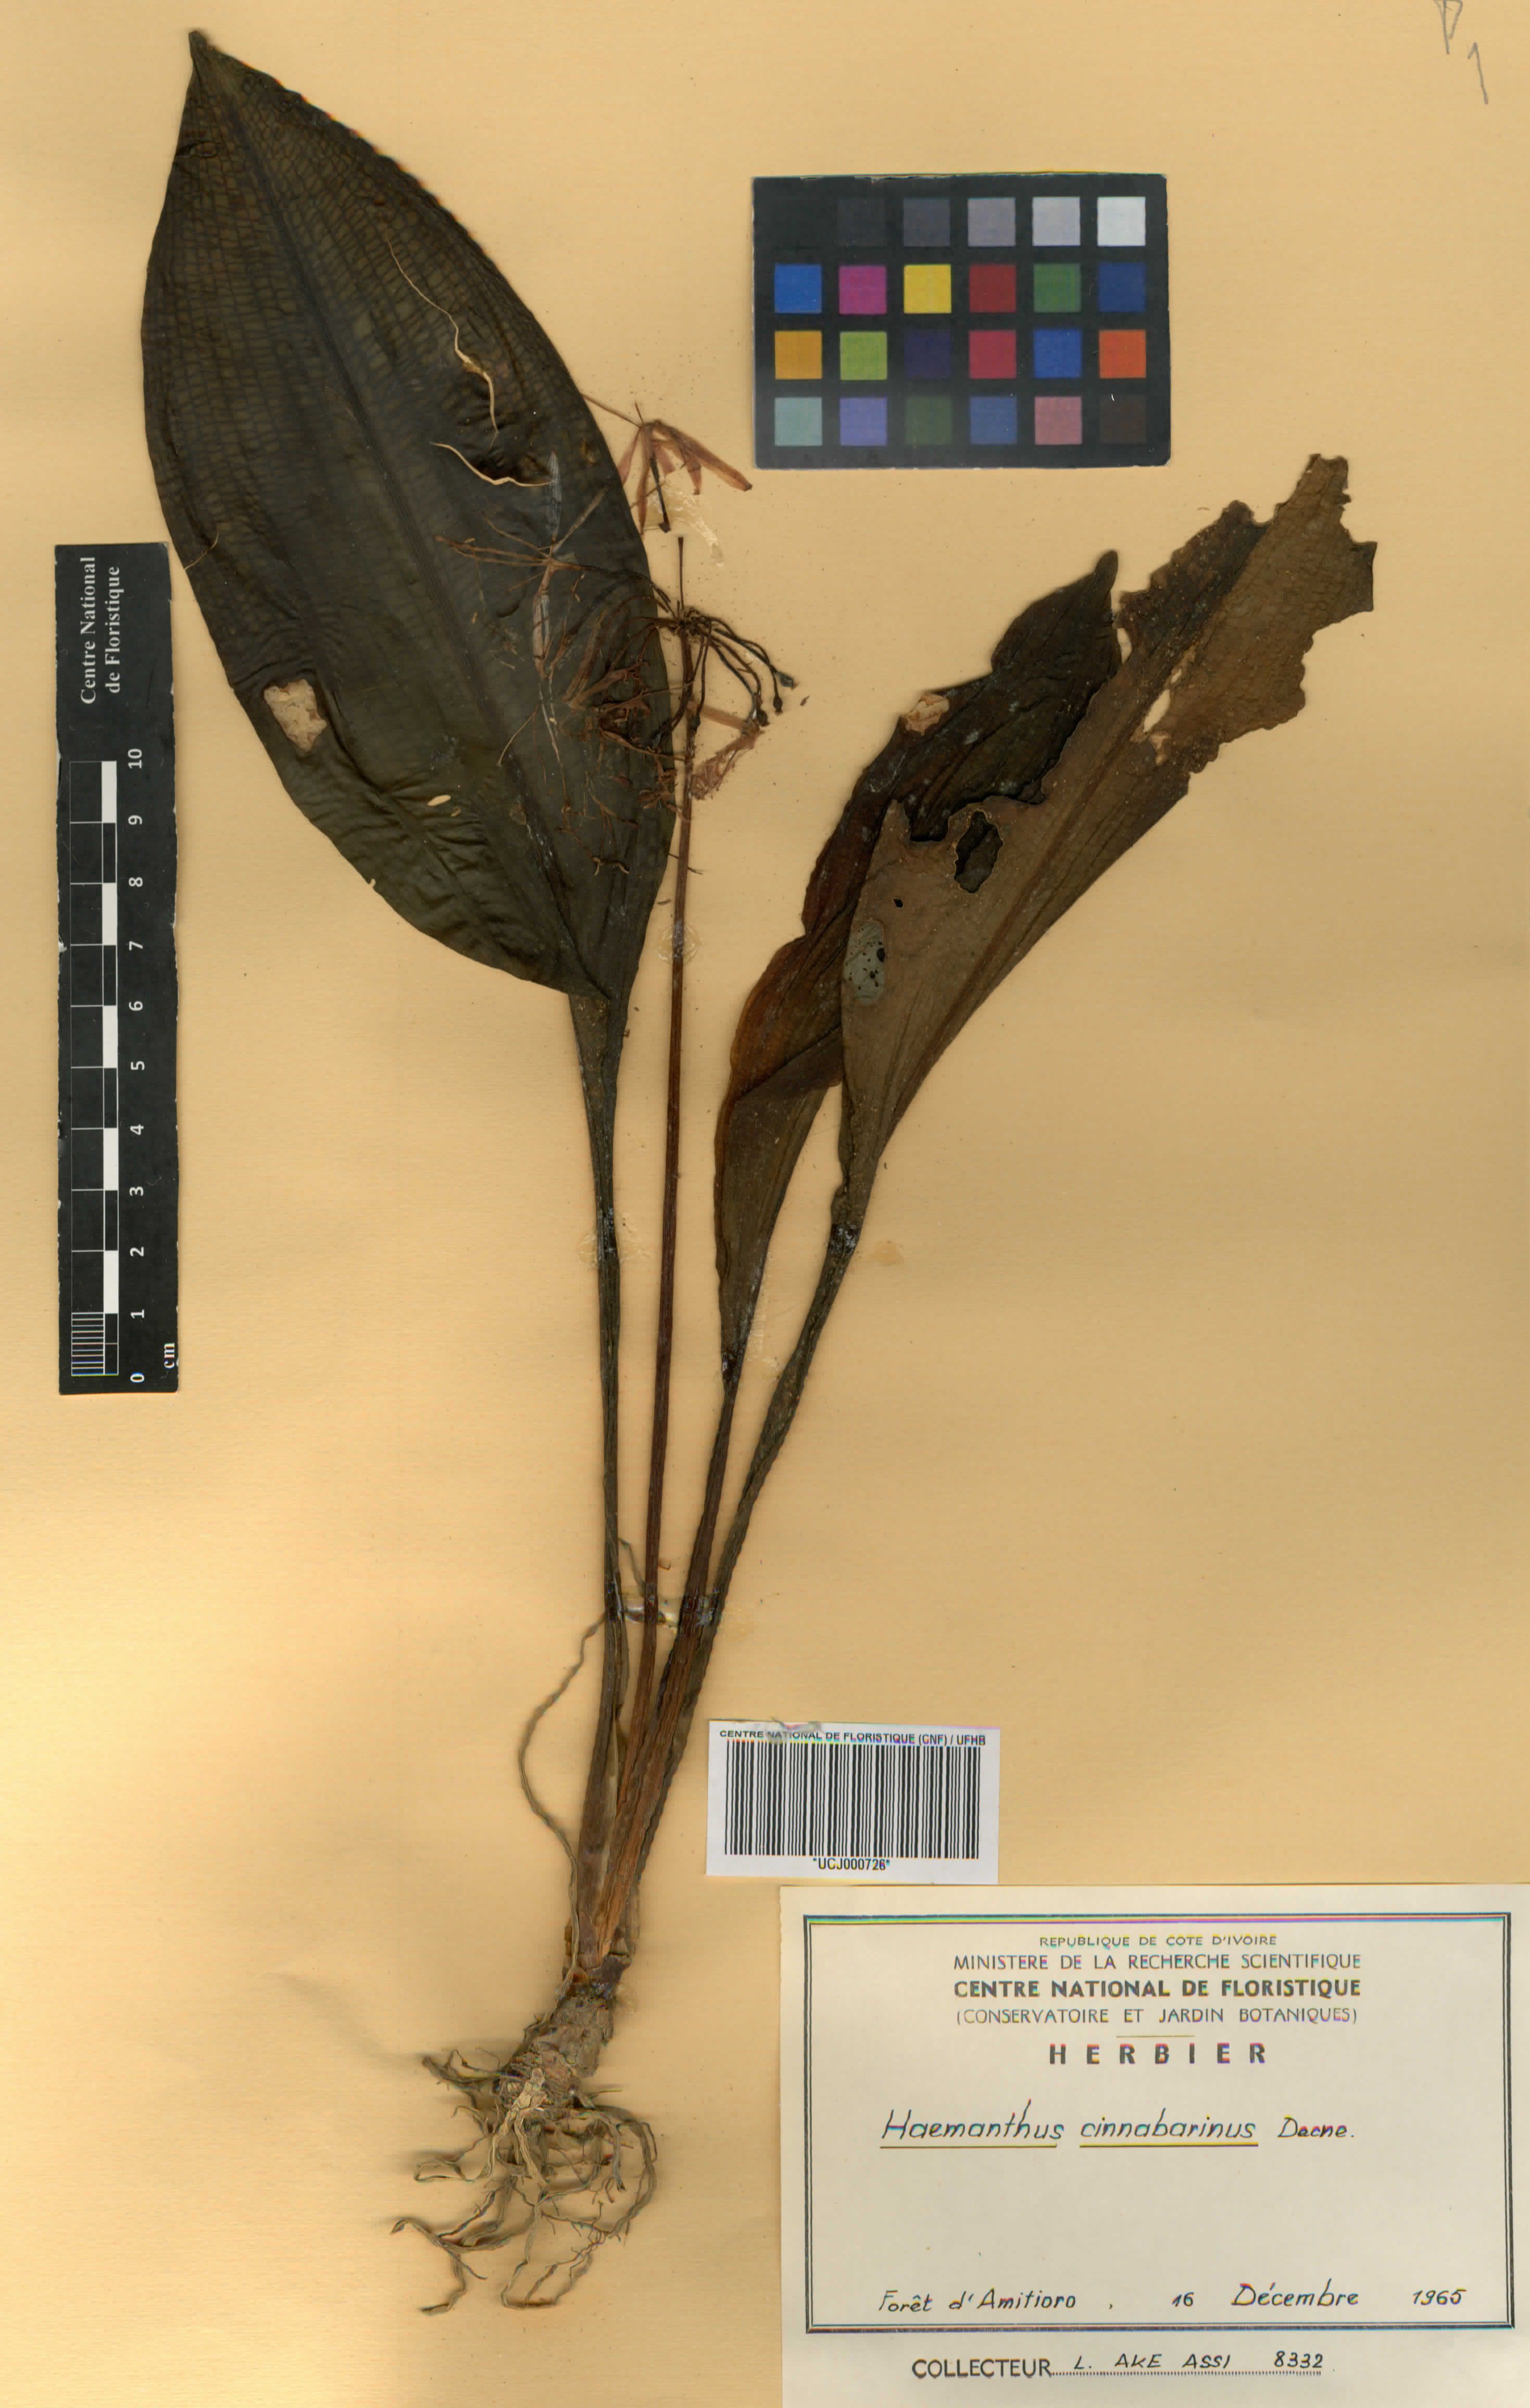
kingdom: Plantae
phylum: Tracheophyta
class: Liliopsida
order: Asparagales
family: Amaryllidaceae
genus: Scadoxus
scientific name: Scadoxus cinnabarinus
